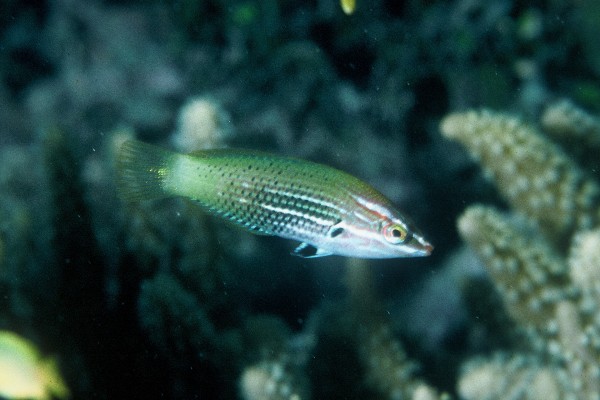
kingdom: Animalia
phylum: Chordata
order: Perciformes
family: Labridae
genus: Halichoeres
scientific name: Halichoeres podostigma
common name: Axil spot wrasse
